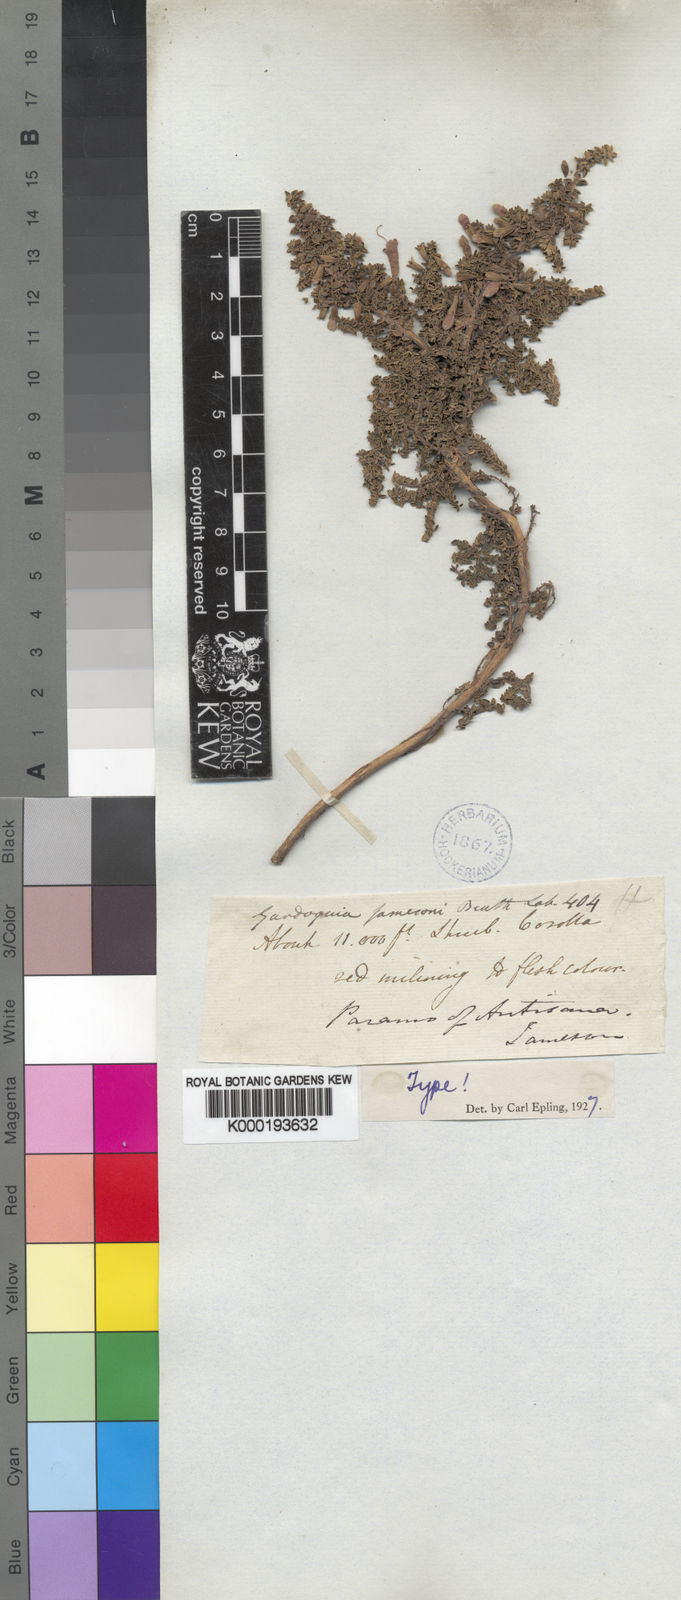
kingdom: Plantae
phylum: Tracheophyta
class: Magnoliopsida
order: Lamiales
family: Lamiaceae
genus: Clinopodium
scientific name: Clinopodium jamesonii
